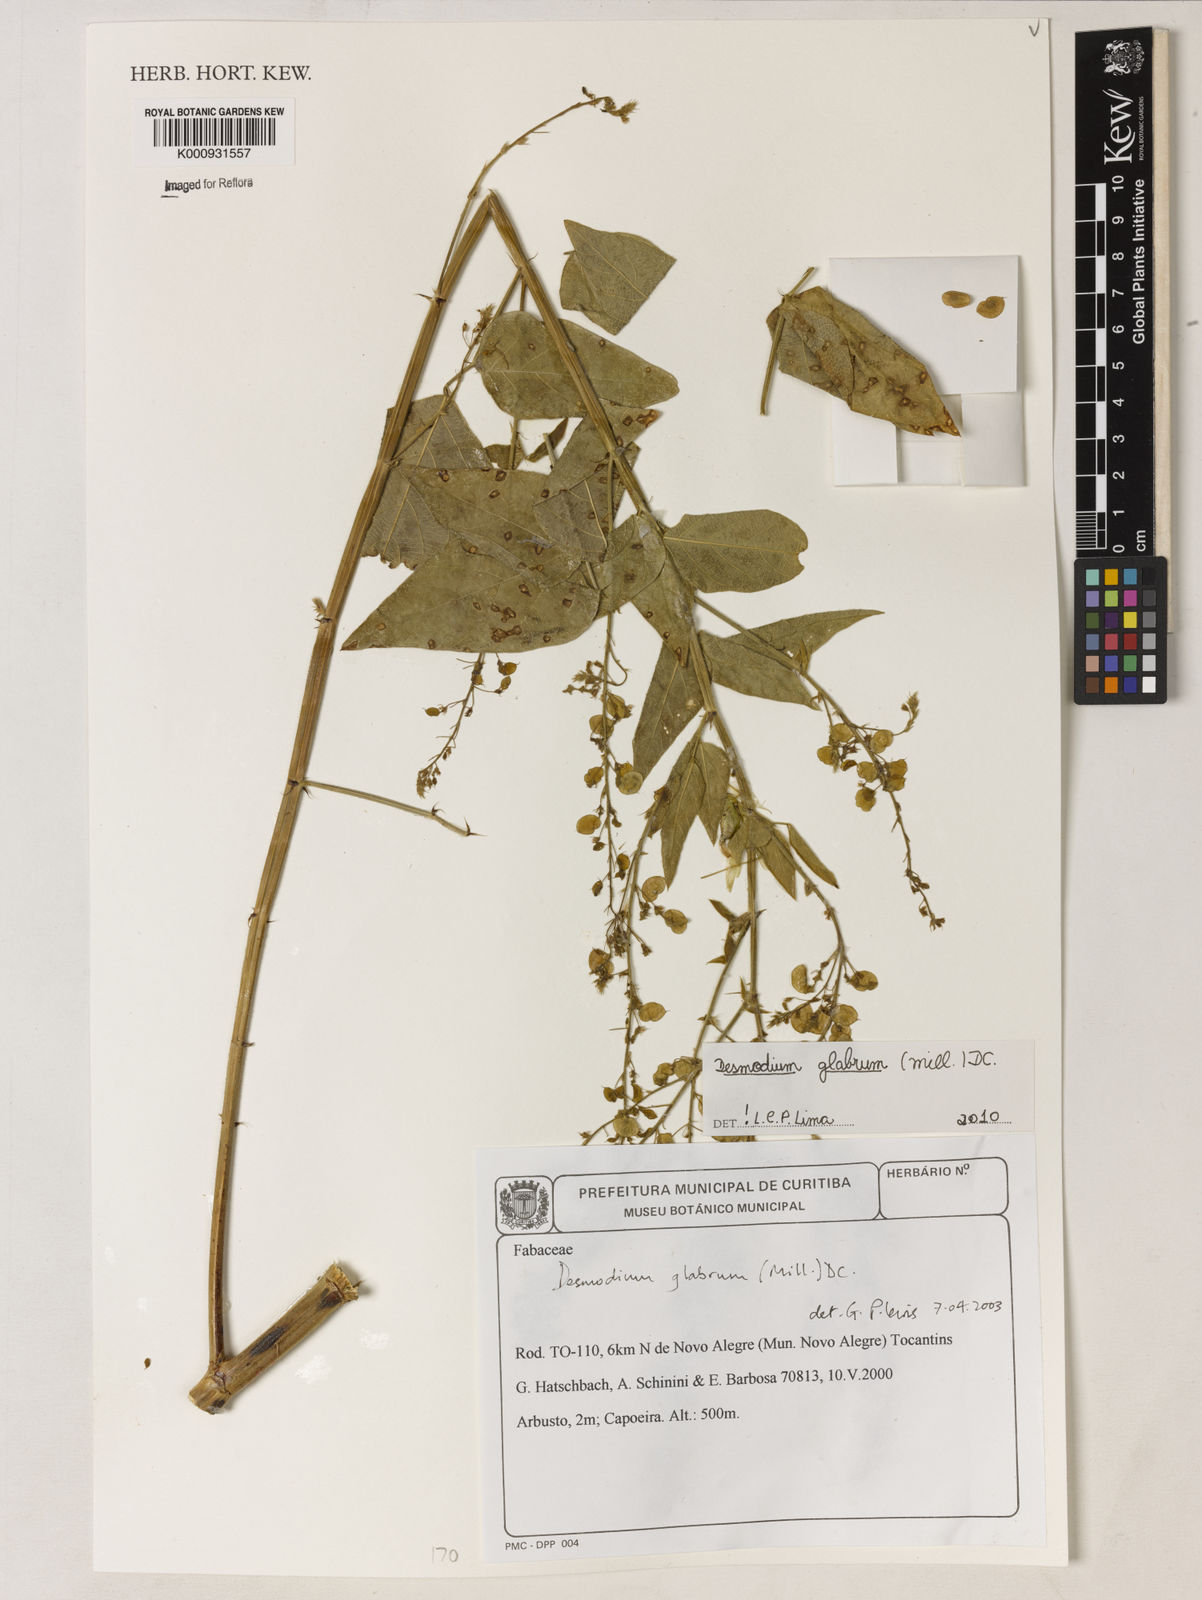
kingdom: Plantae
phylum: Tracheophyta
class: Magnoliopsida
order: Fabales
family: Fabaceae
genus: Desmodium
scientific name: Desmodium glabrum
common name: Zarzabacoa dulce
